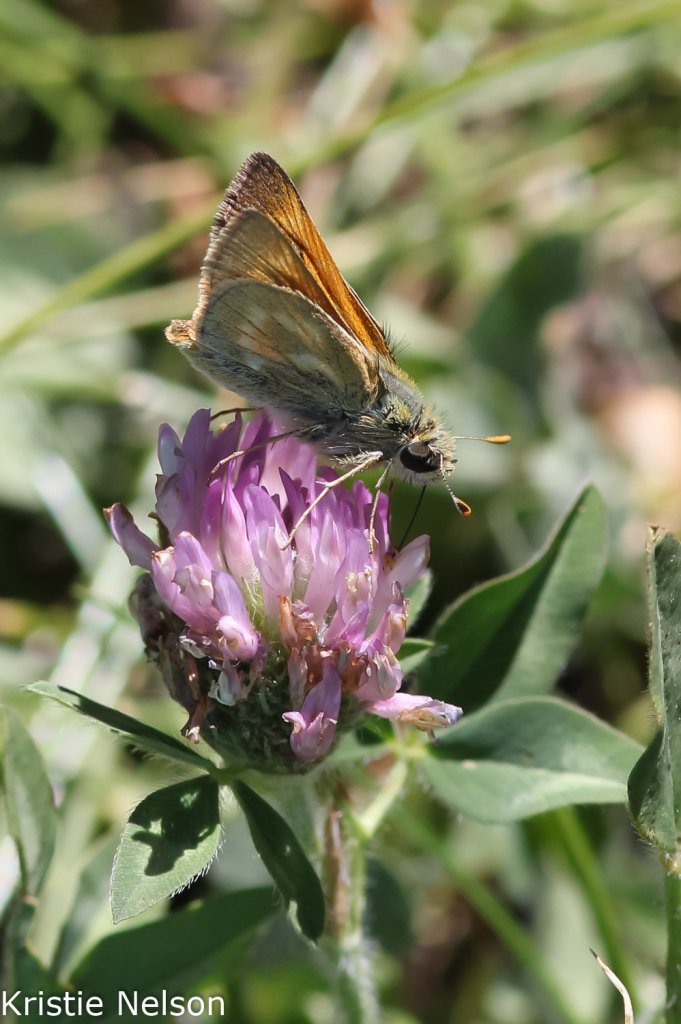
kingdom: Animalia
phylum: Arthropoda
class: Insecta
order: Lepidoptera
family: Hesperiidae
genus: Polites
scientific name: Polites mystic
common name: Sonoran Skipper
